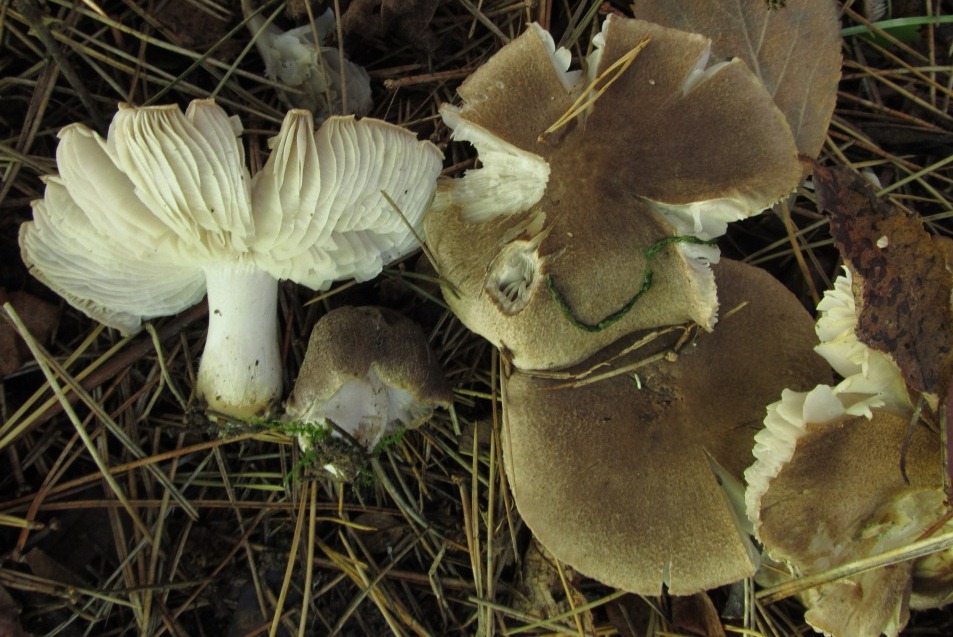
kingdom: Fungi
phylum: Basidiomycota
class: Agaricomycetes
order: Agaricales
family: Tricholomataceae
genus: Tricholoma
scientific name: Tricholoma terreum
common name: jordfarvet ridderhat
